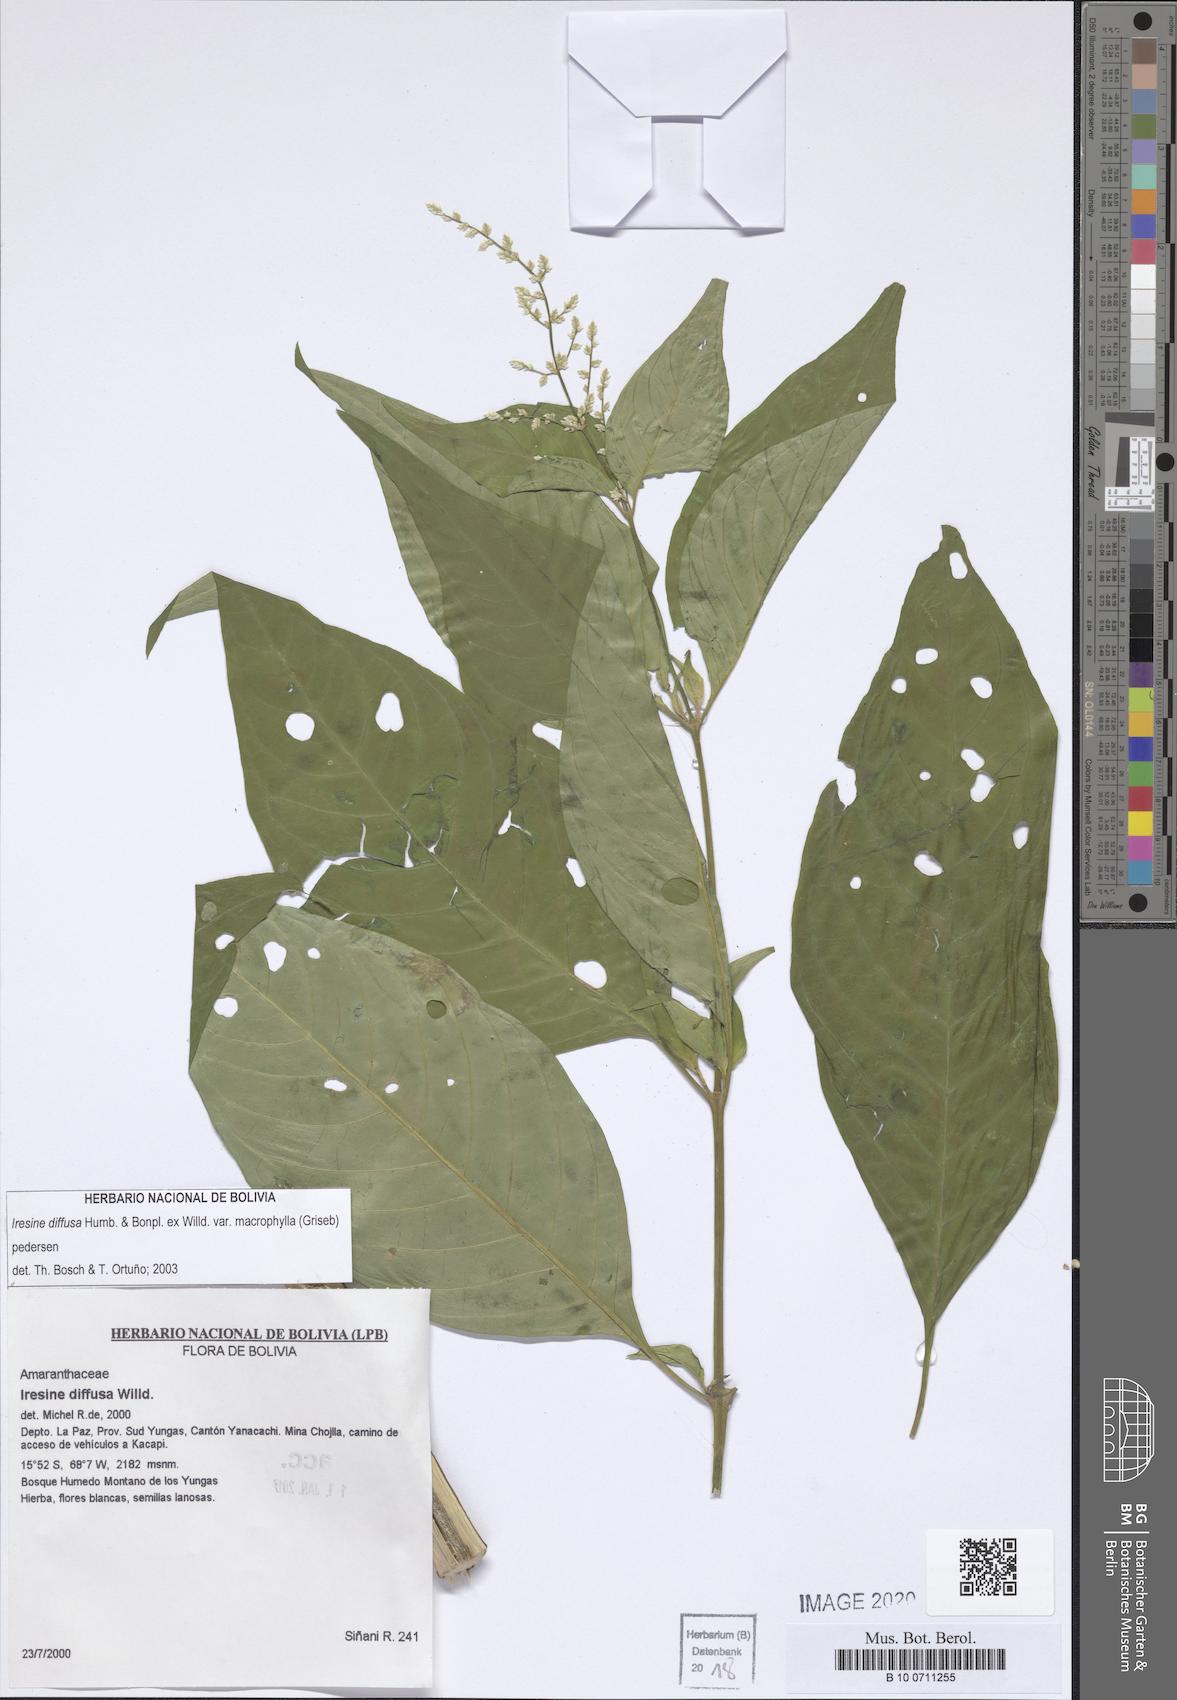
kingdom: Plantae
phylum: Tracheophyta
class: Magnoliopsida
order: Caryophyllales
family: Amaranthaceae
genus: Iresine
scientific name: Iresine diffusa
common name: Juba's-bush
